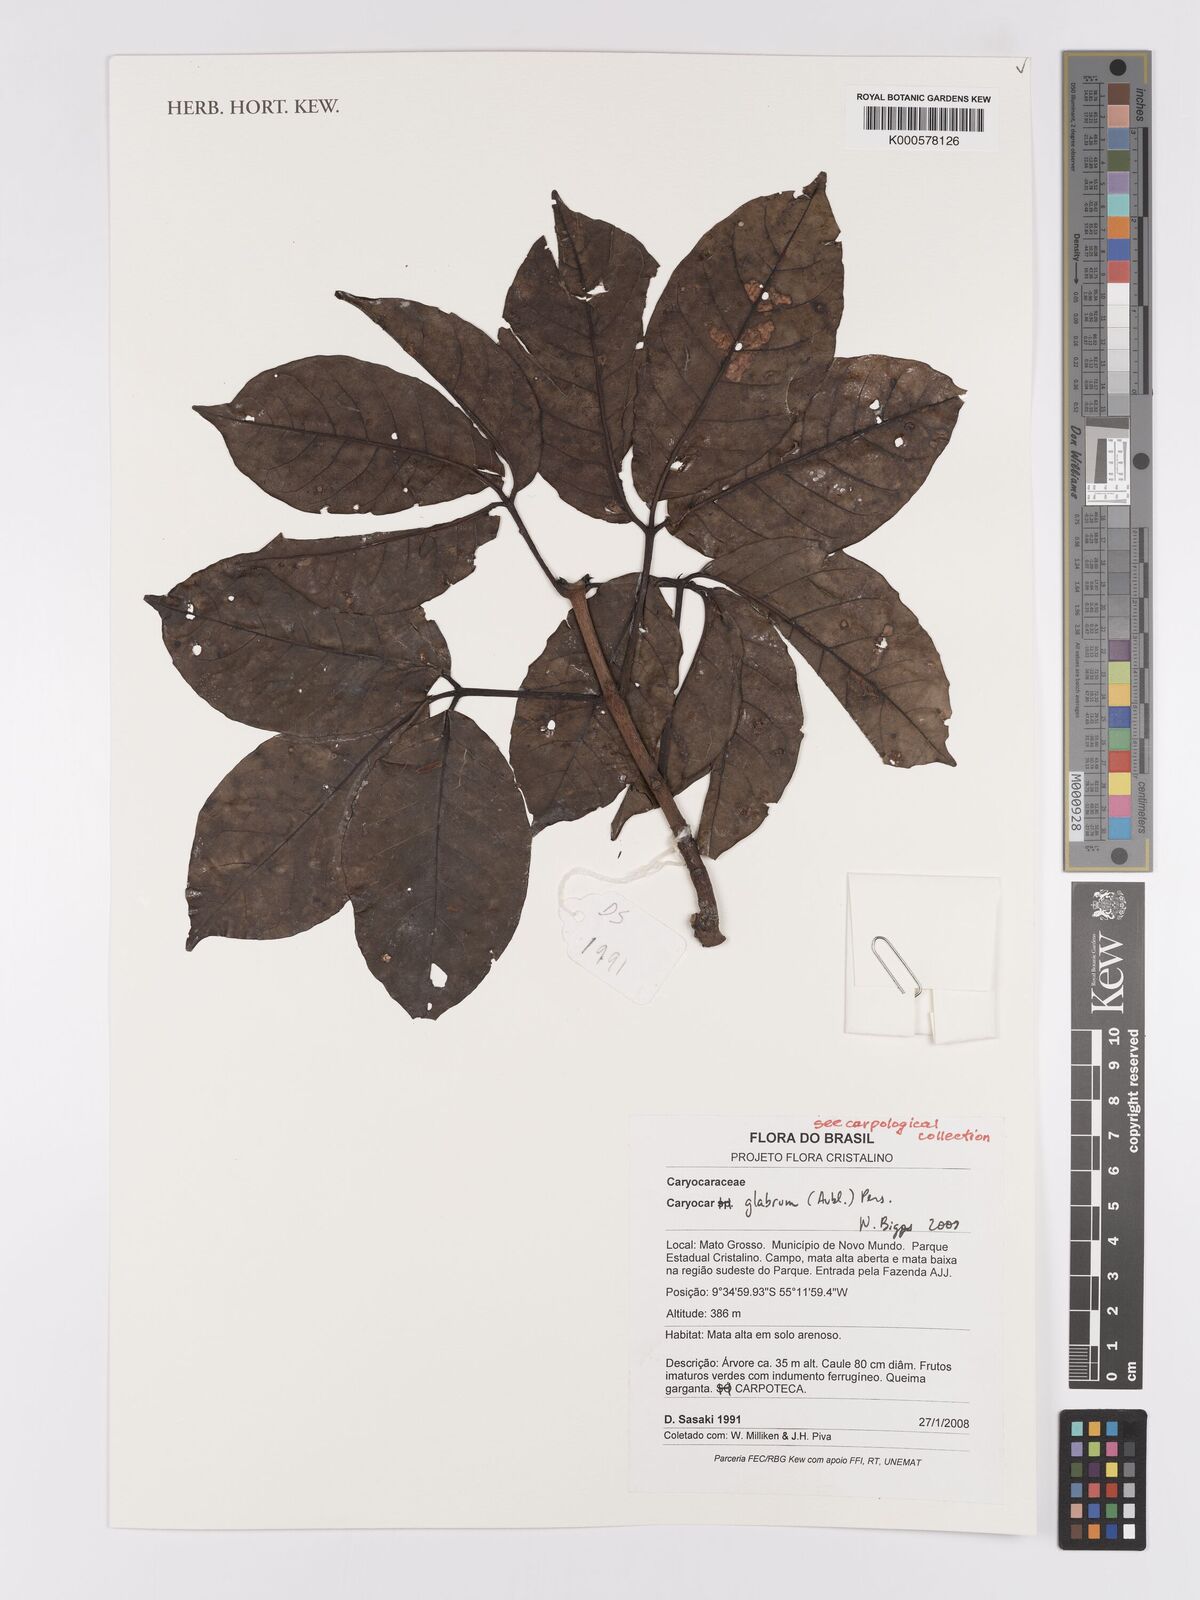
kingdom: Plantae
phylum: Tracheophyta
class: Magnoliopsida
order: Malpighiales
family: Caryocaraceae
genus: Caryocar
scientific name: Caryocar glabrum
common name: Bat's souari
